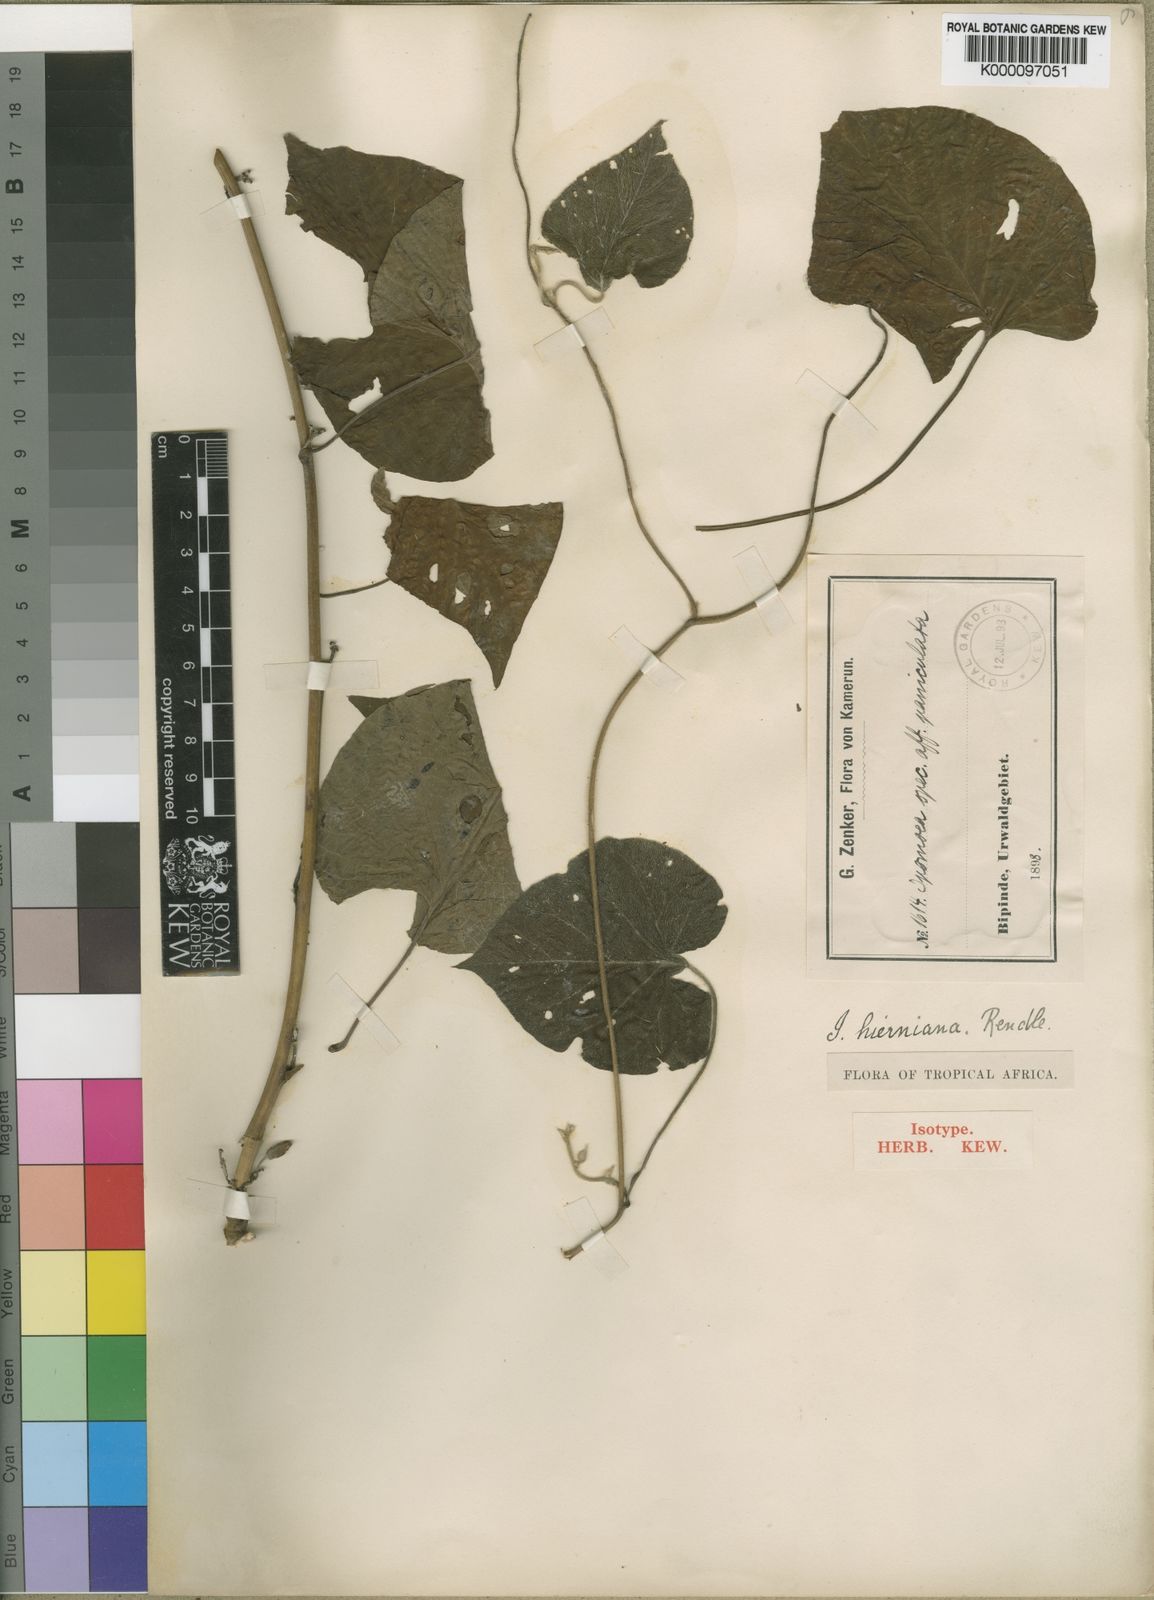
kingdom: Plantae
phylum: Tracheophyta
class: Magnoliopsida
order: Solanales
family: Convolvulaceae
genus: Stictocardia
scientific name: Stictocardia beraviensis
